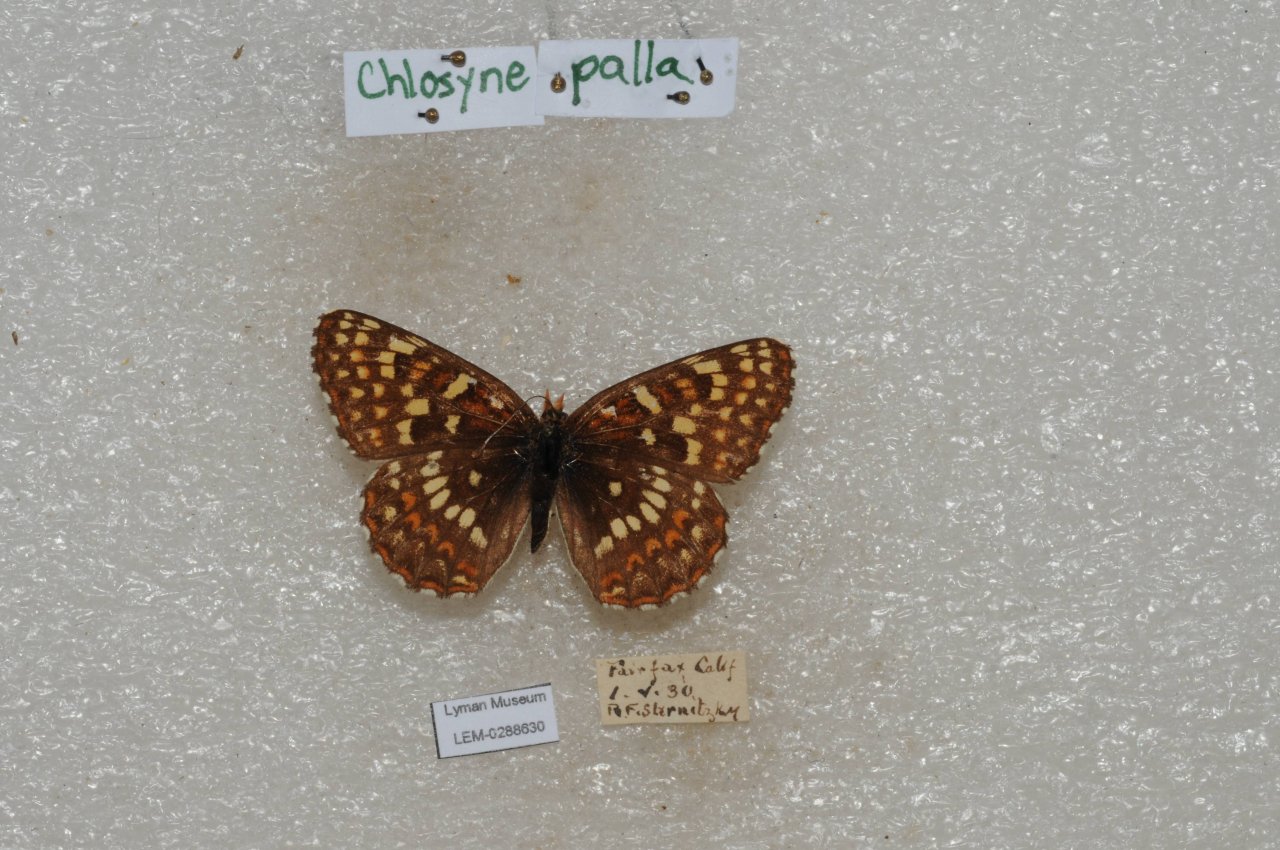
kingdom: Animalia
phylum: Arthropoda
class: Insecta
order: Lepidoptera
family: Nymphalidae
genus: Chlosyne
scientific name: Chlosyne palla
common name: Rockslide Checkerspot
